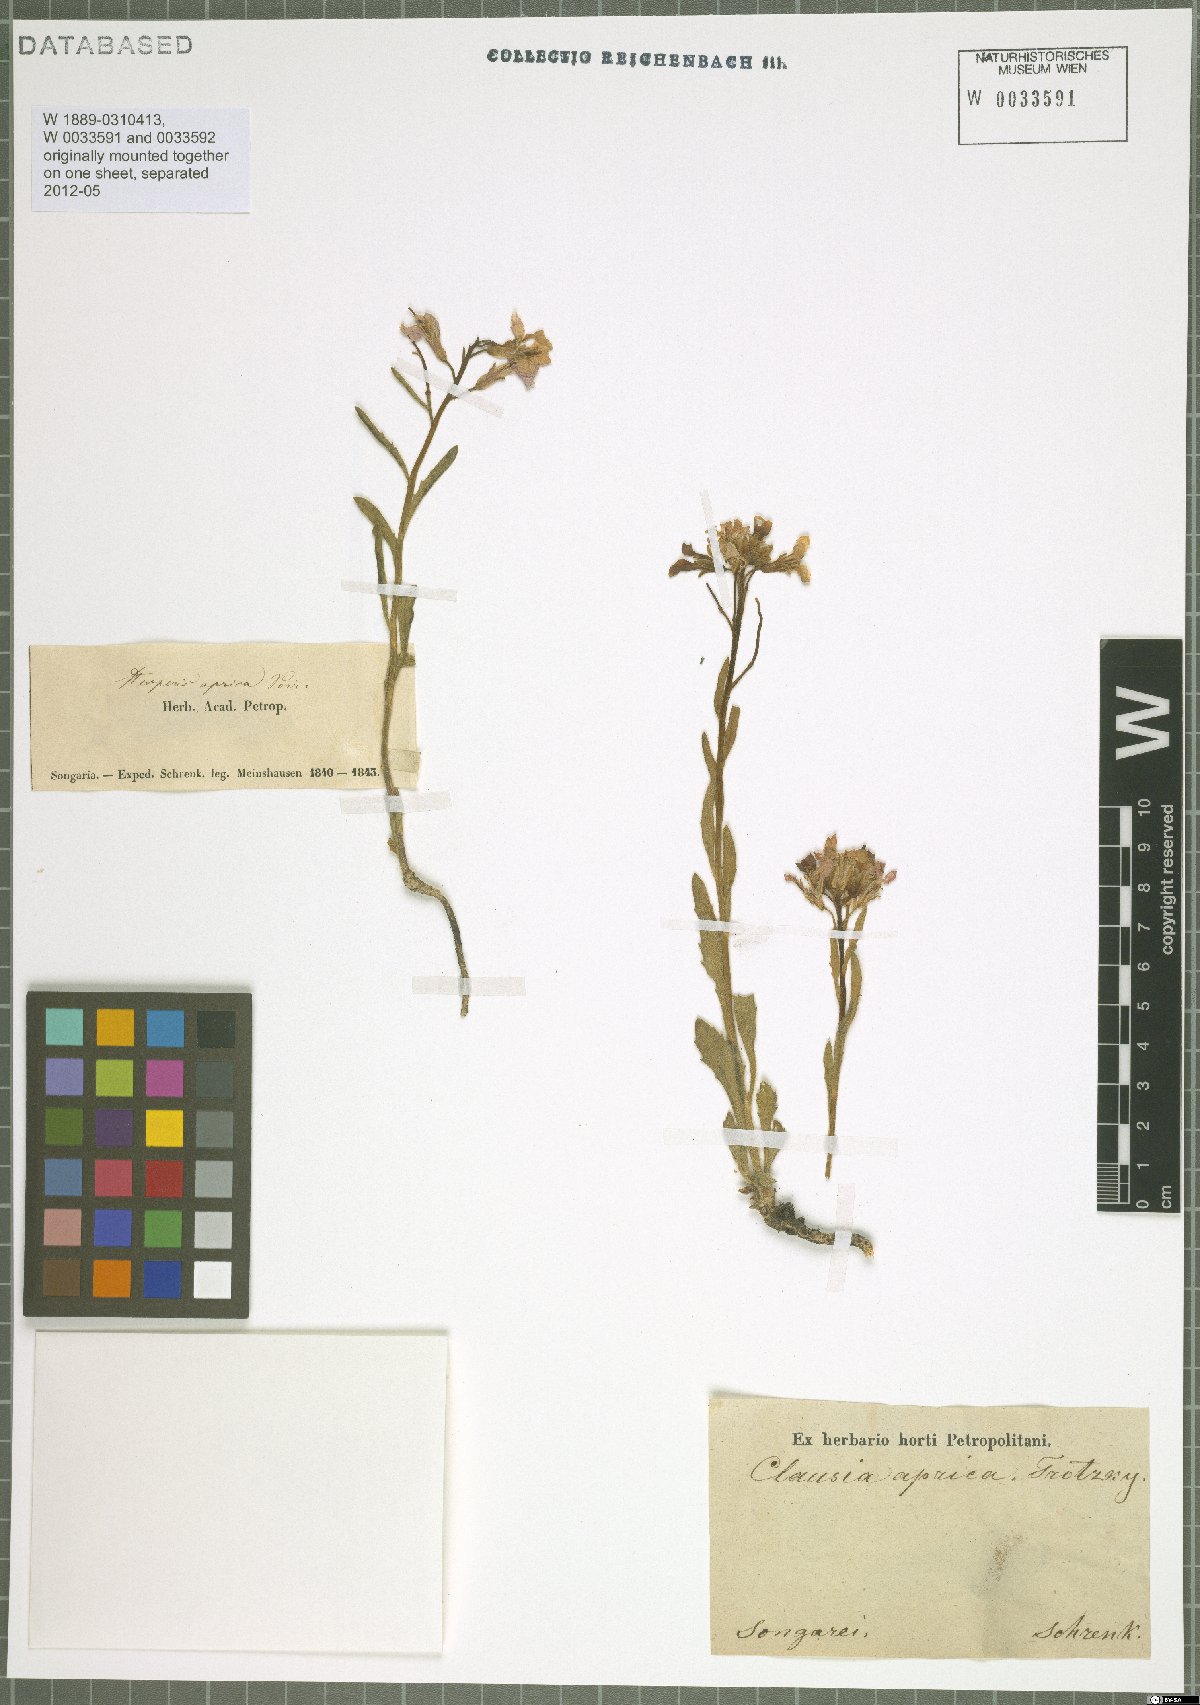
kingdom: Plantae
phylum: Tracheophyta
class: Magnoliopsida
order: Brassicales
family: Brassicaceae
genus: Clausia
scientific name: Clausia aprica
